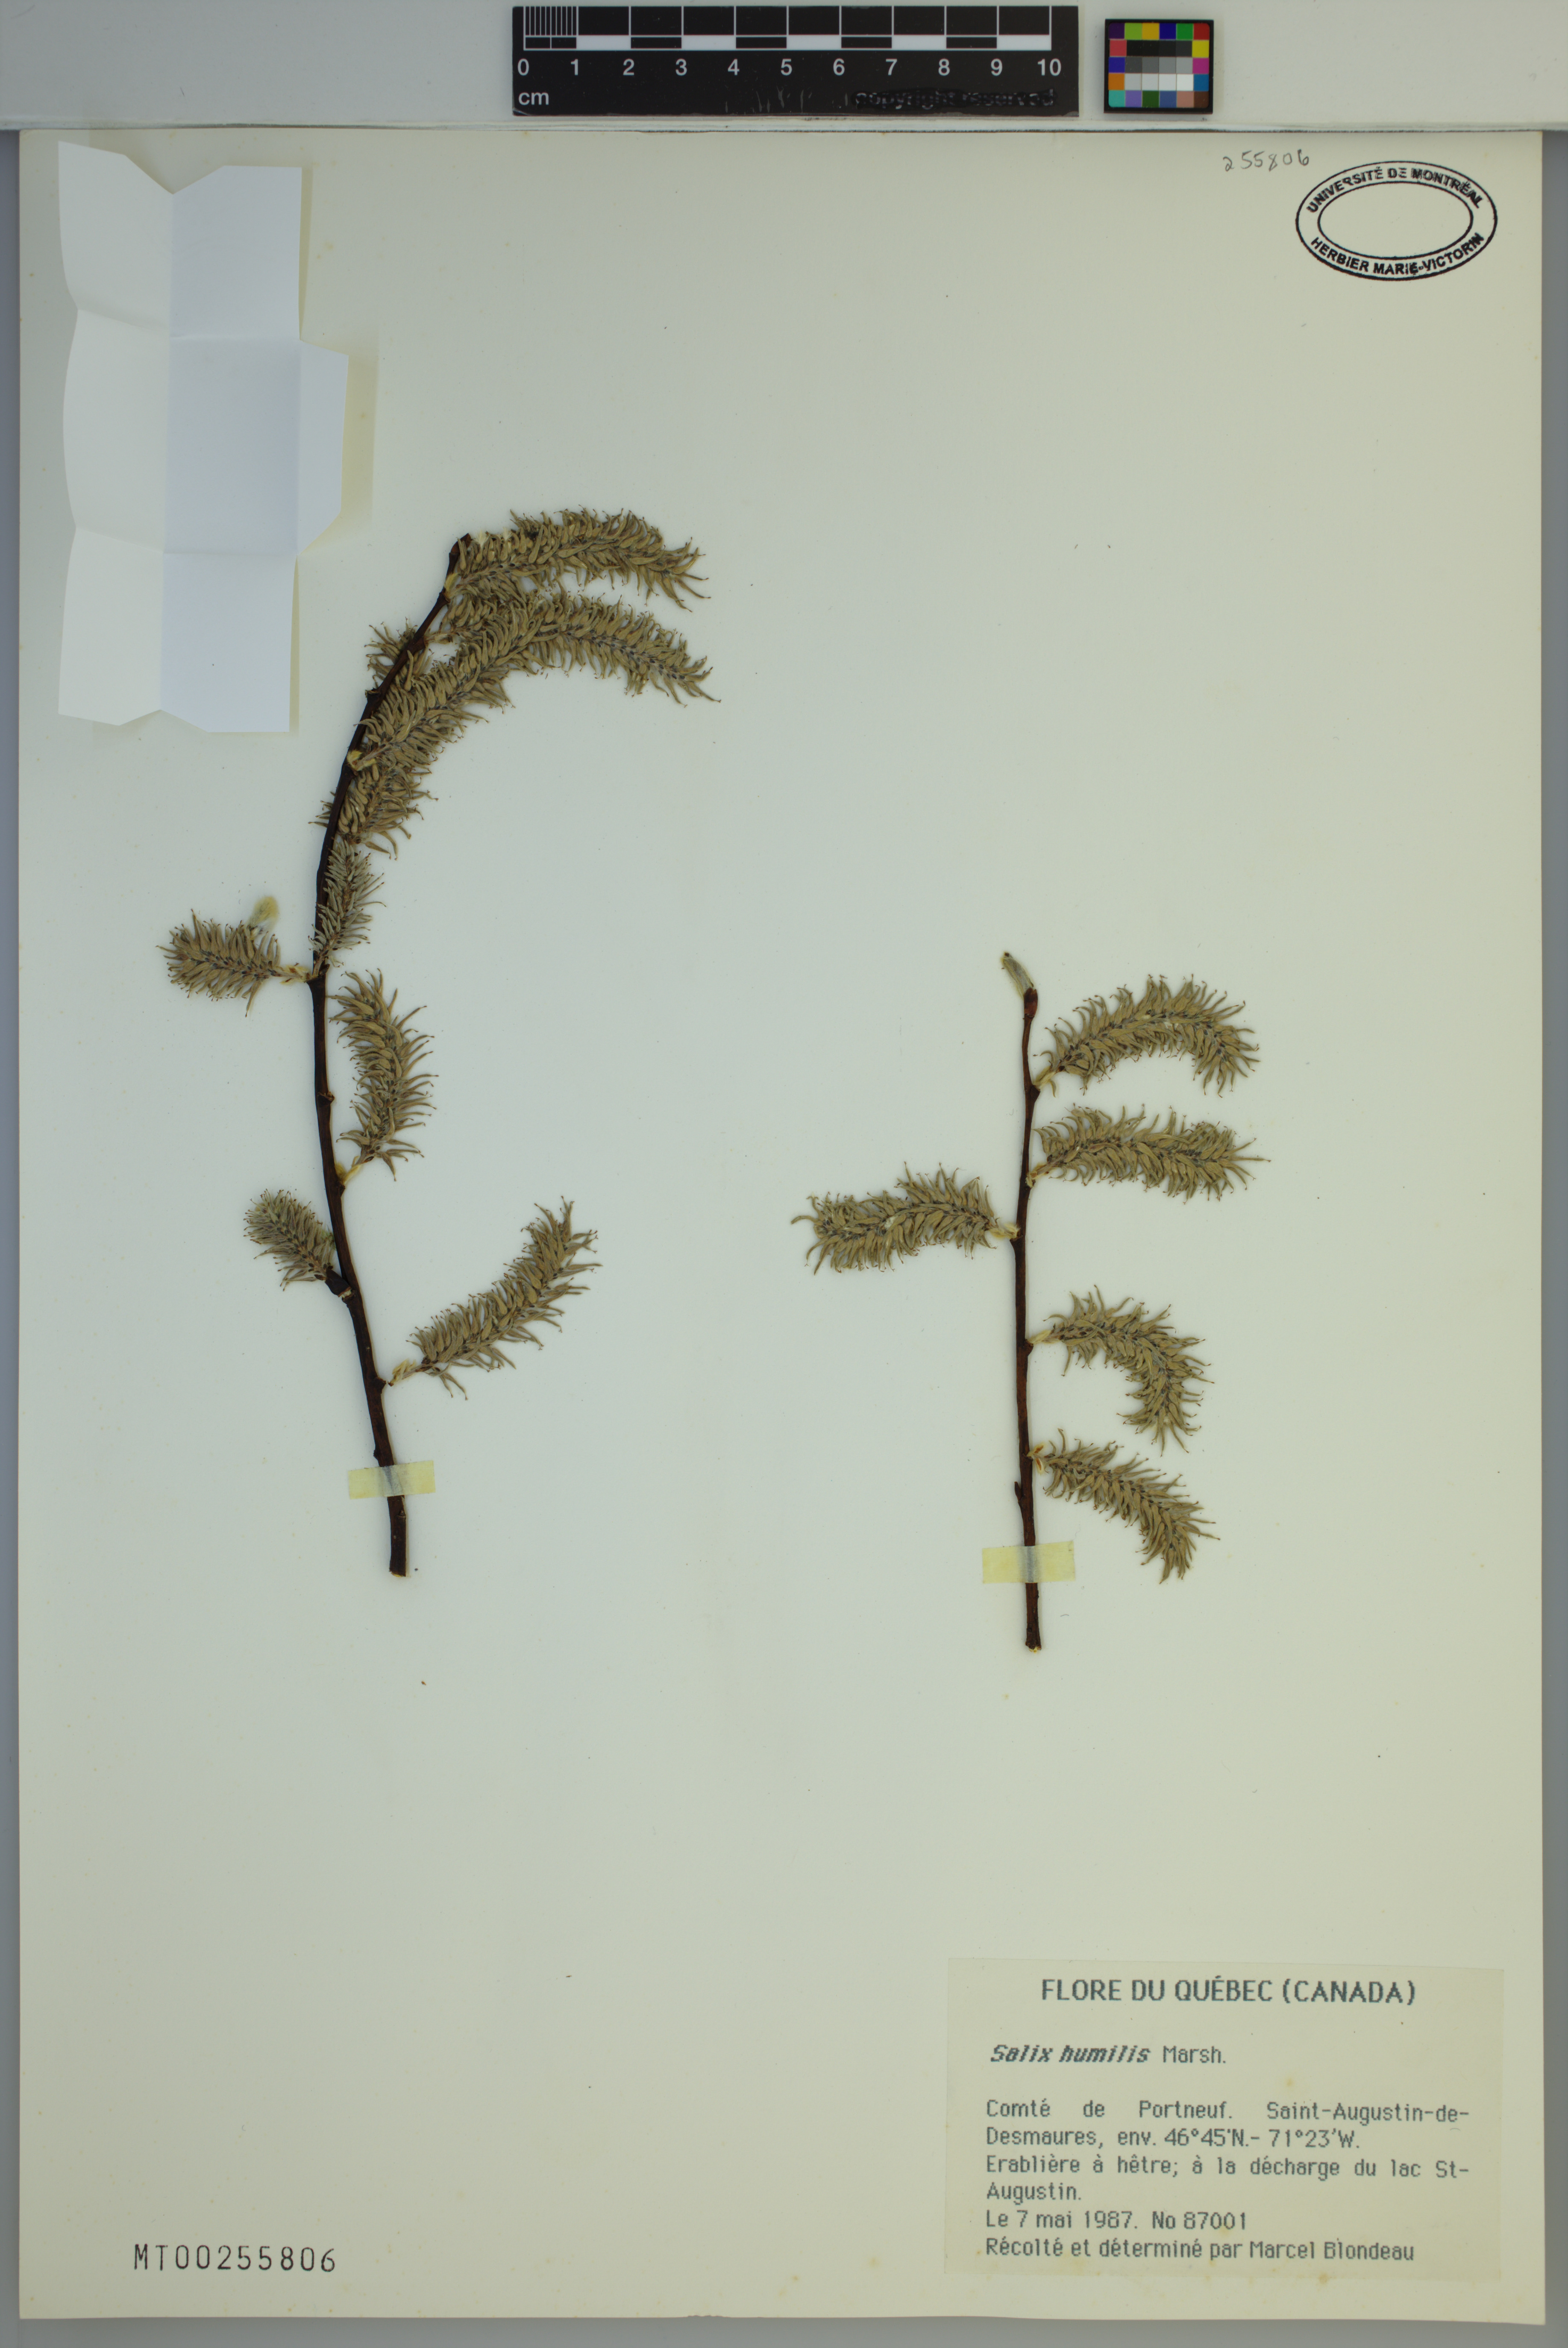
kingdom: Plantae
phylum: Tracheophyta
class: Magnoliopsida
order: Malpighiales
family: Salicaceae
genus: Salix
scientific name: Salix humilis
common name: Prairie willow
